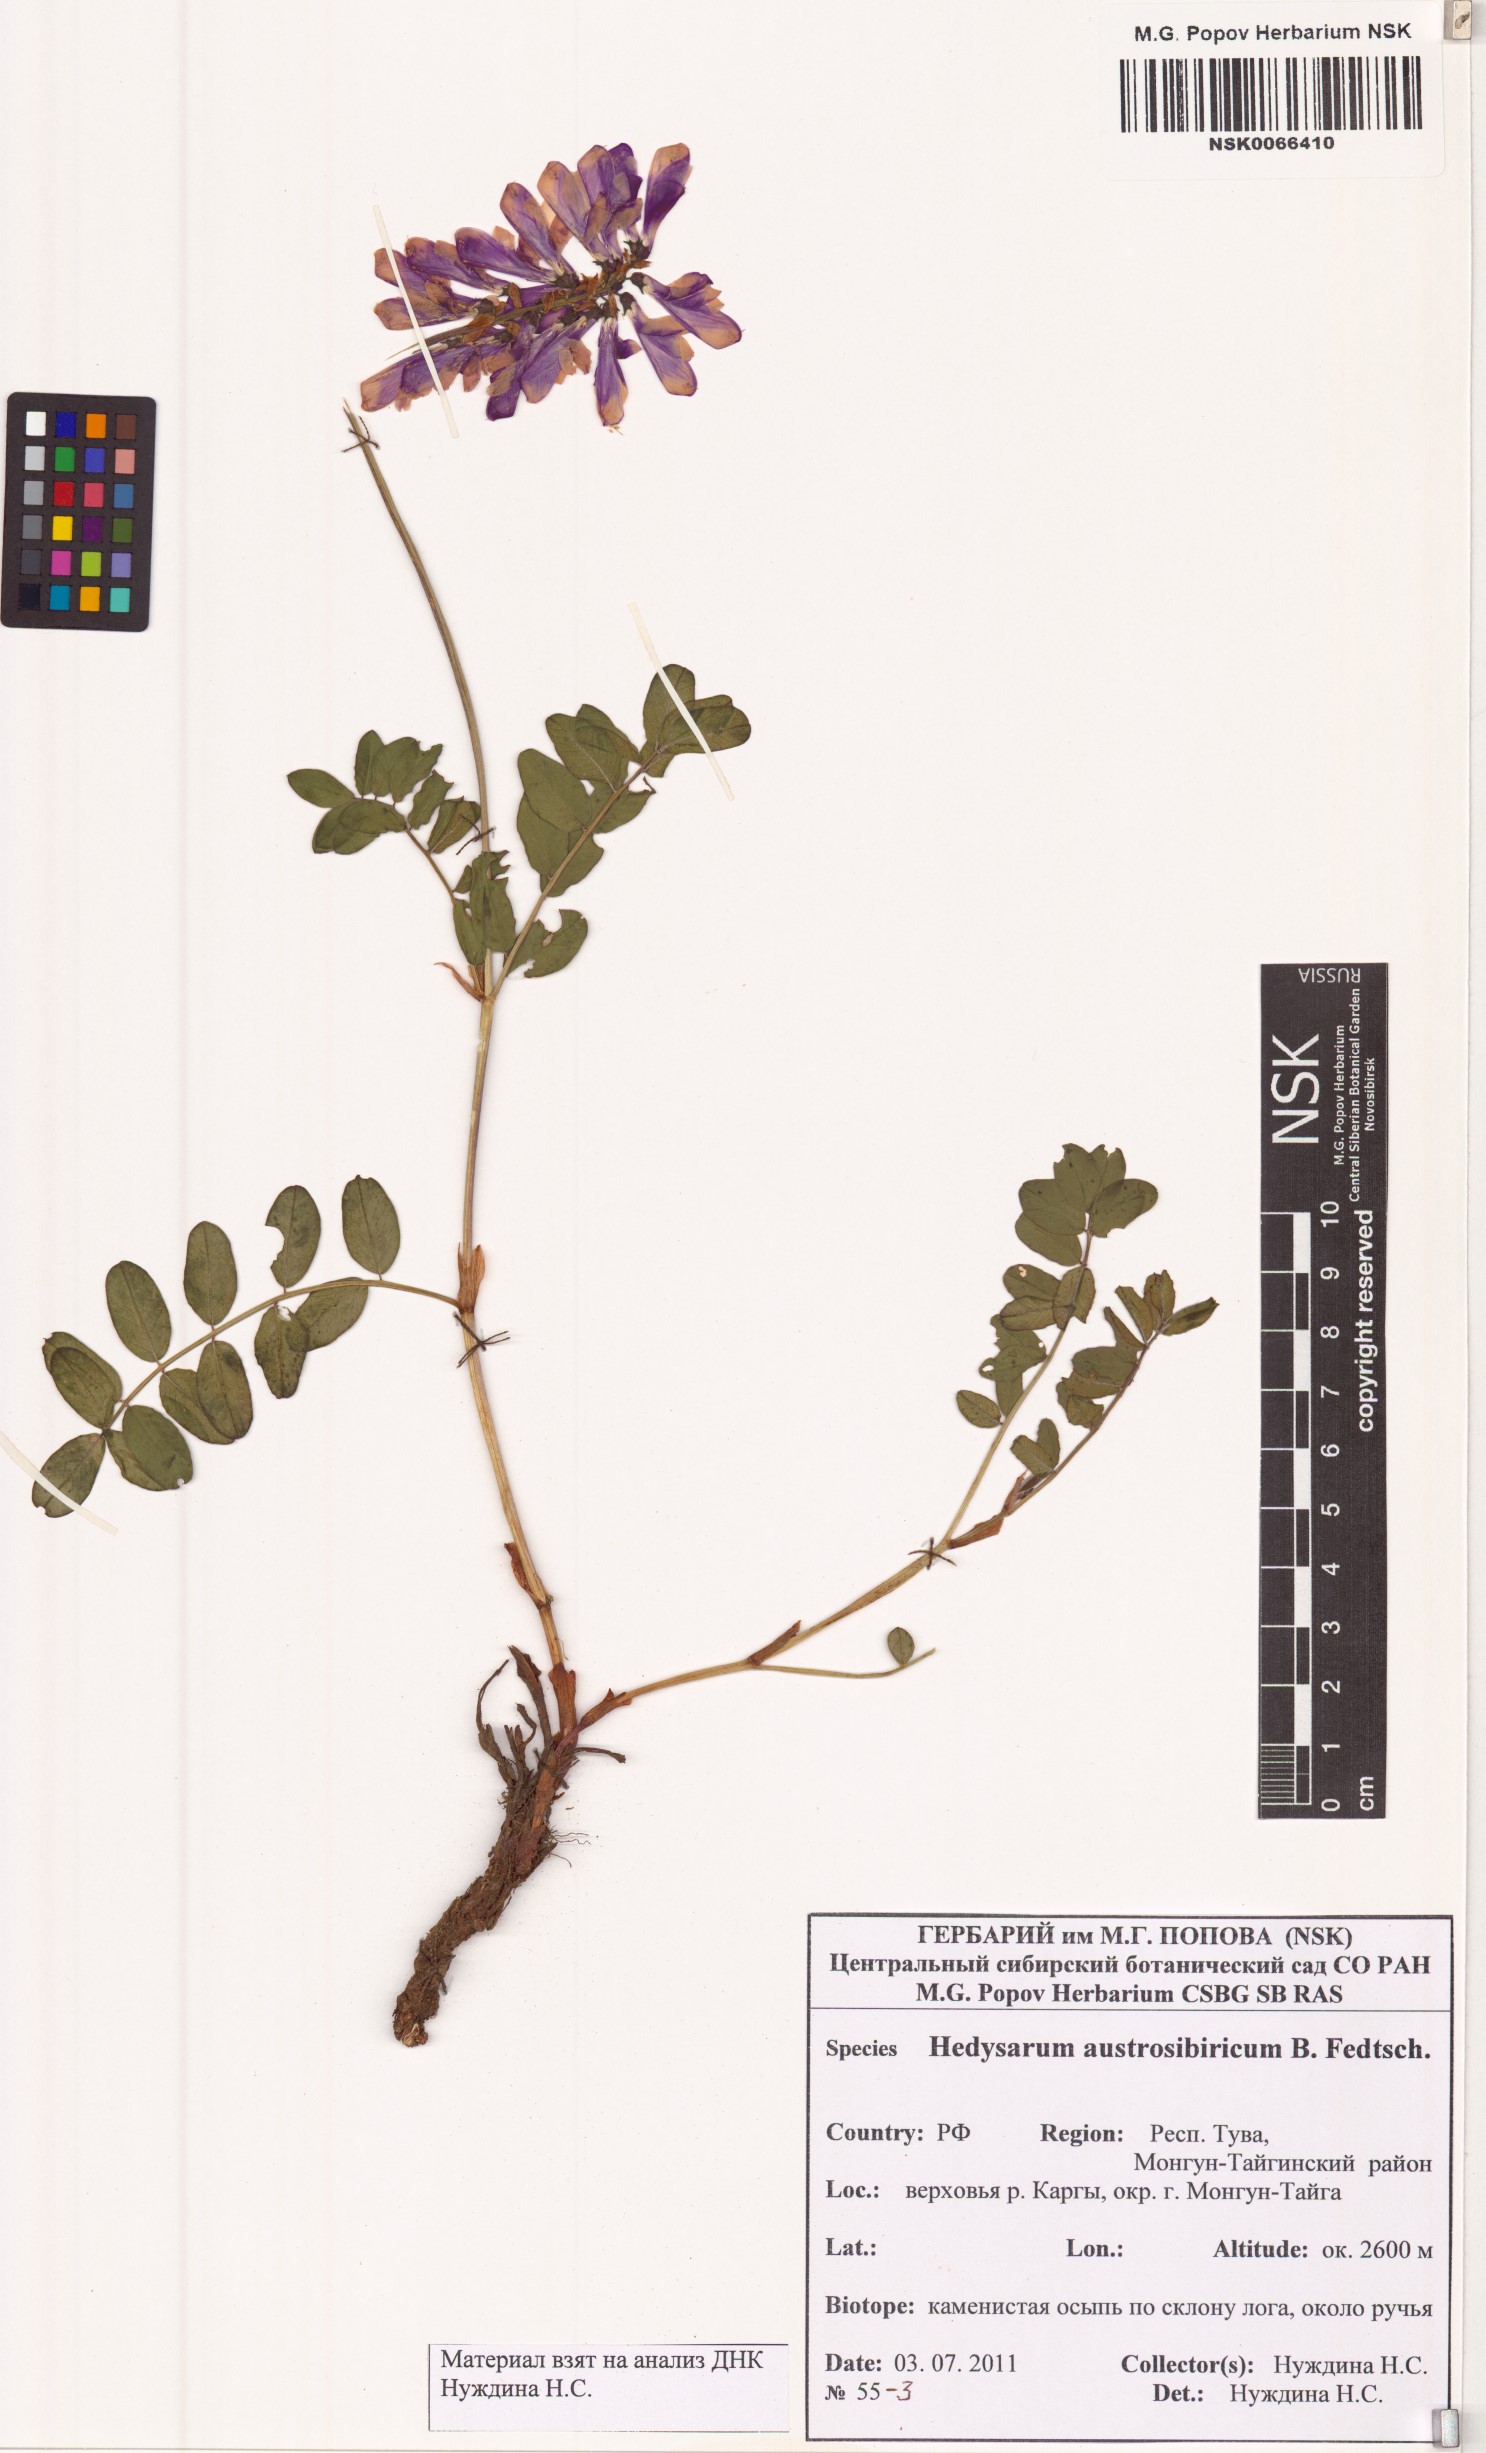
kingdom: Plantae
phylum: Tracheophyta
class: Magnoliopsida
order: Fabales
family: Fabaceae
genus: Hedysarum
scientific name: Hedysarum neglectum
